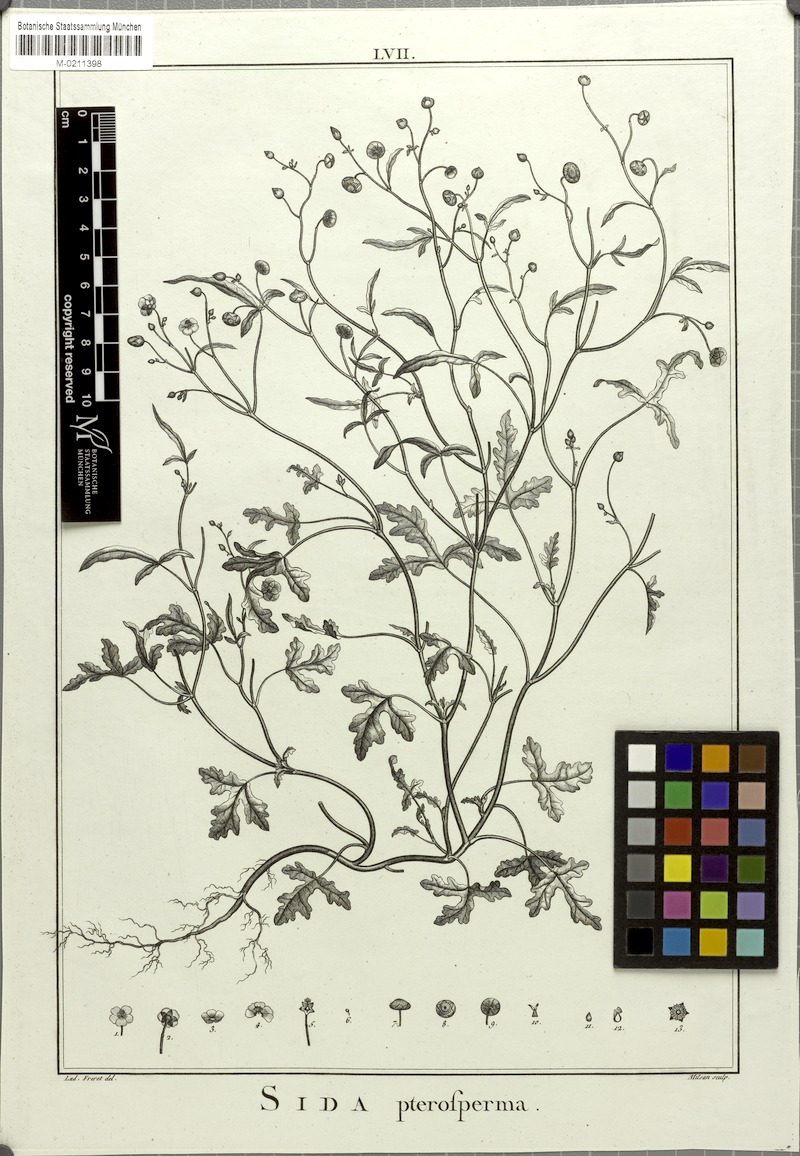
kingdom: Plantae
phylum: Tracheophyta
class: Magnoliopsida
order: Malvales
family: Malvaceae
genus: Cristaria
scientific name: Cristaria multifida
